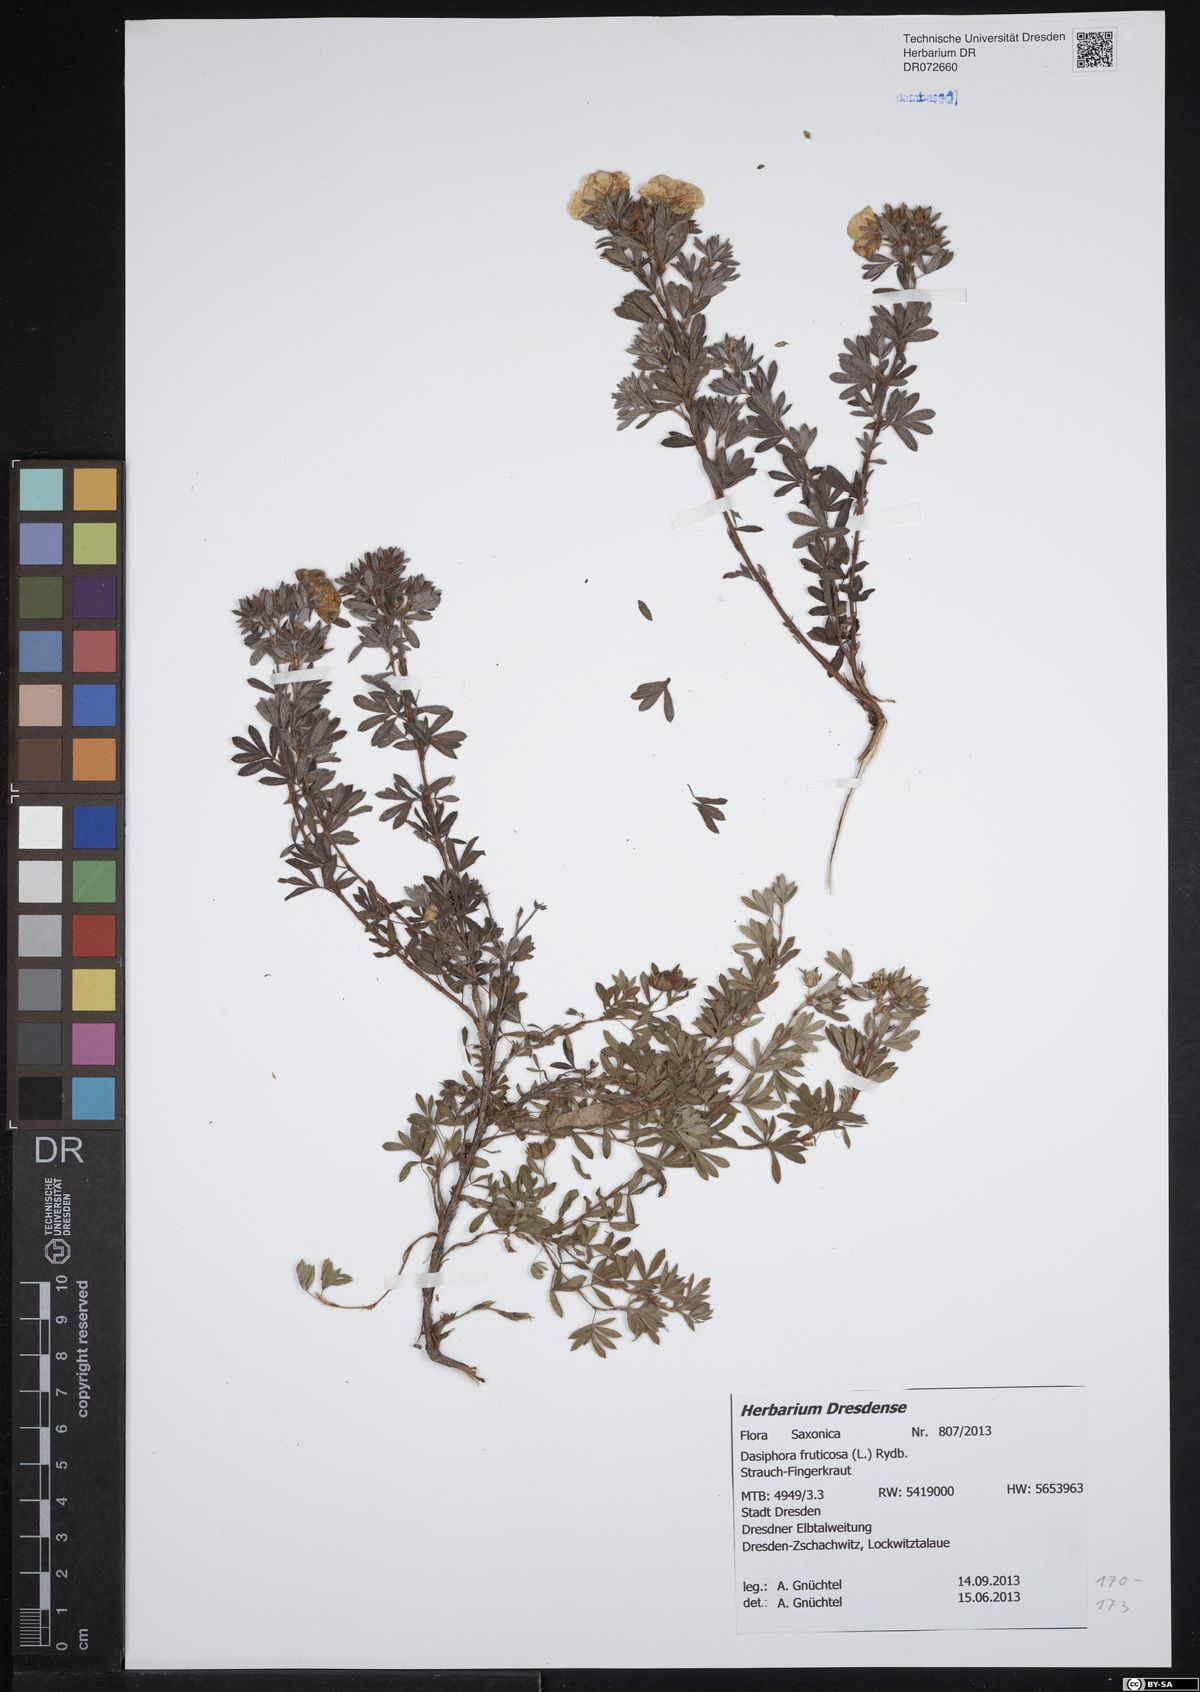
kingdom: Plantae
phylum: Tracheophyta
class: Magnoliopsida
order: Rosales
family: Rosaceae
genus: Dasiphora
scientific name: Dasiphora fruticosa
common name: Shrubby cinquefoil
